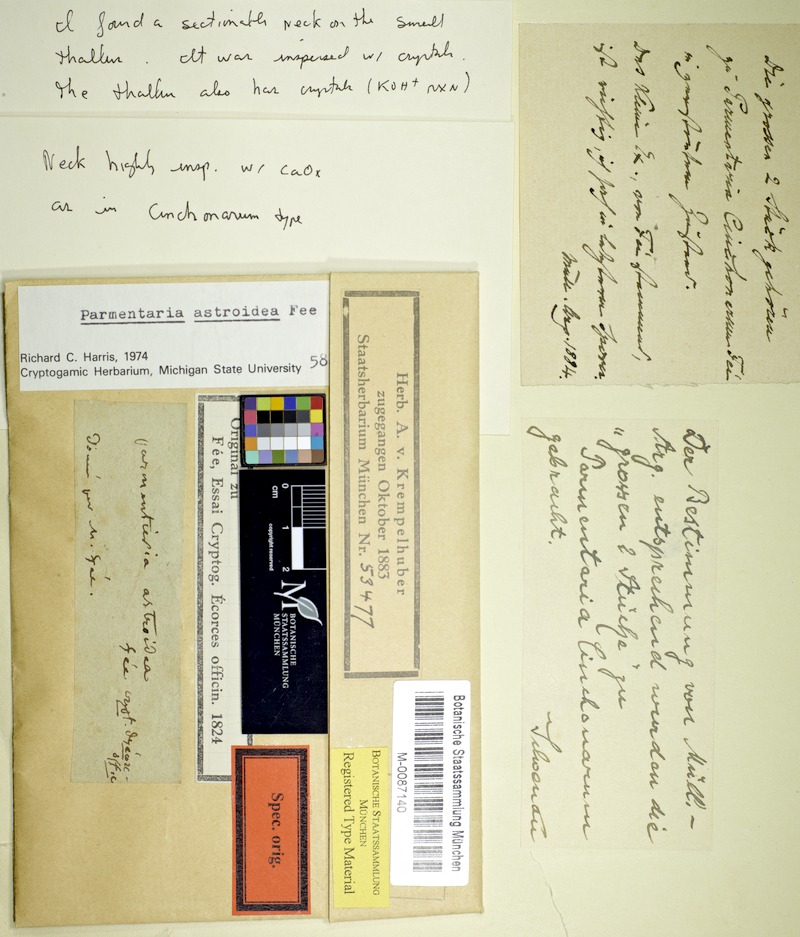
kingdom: Fungi
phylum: Ascomycota
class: Eurotiomycetes
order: Pyrenulales
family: Pyrenulaceae
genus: Pyrenula
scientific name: Pyrenula astroidea
